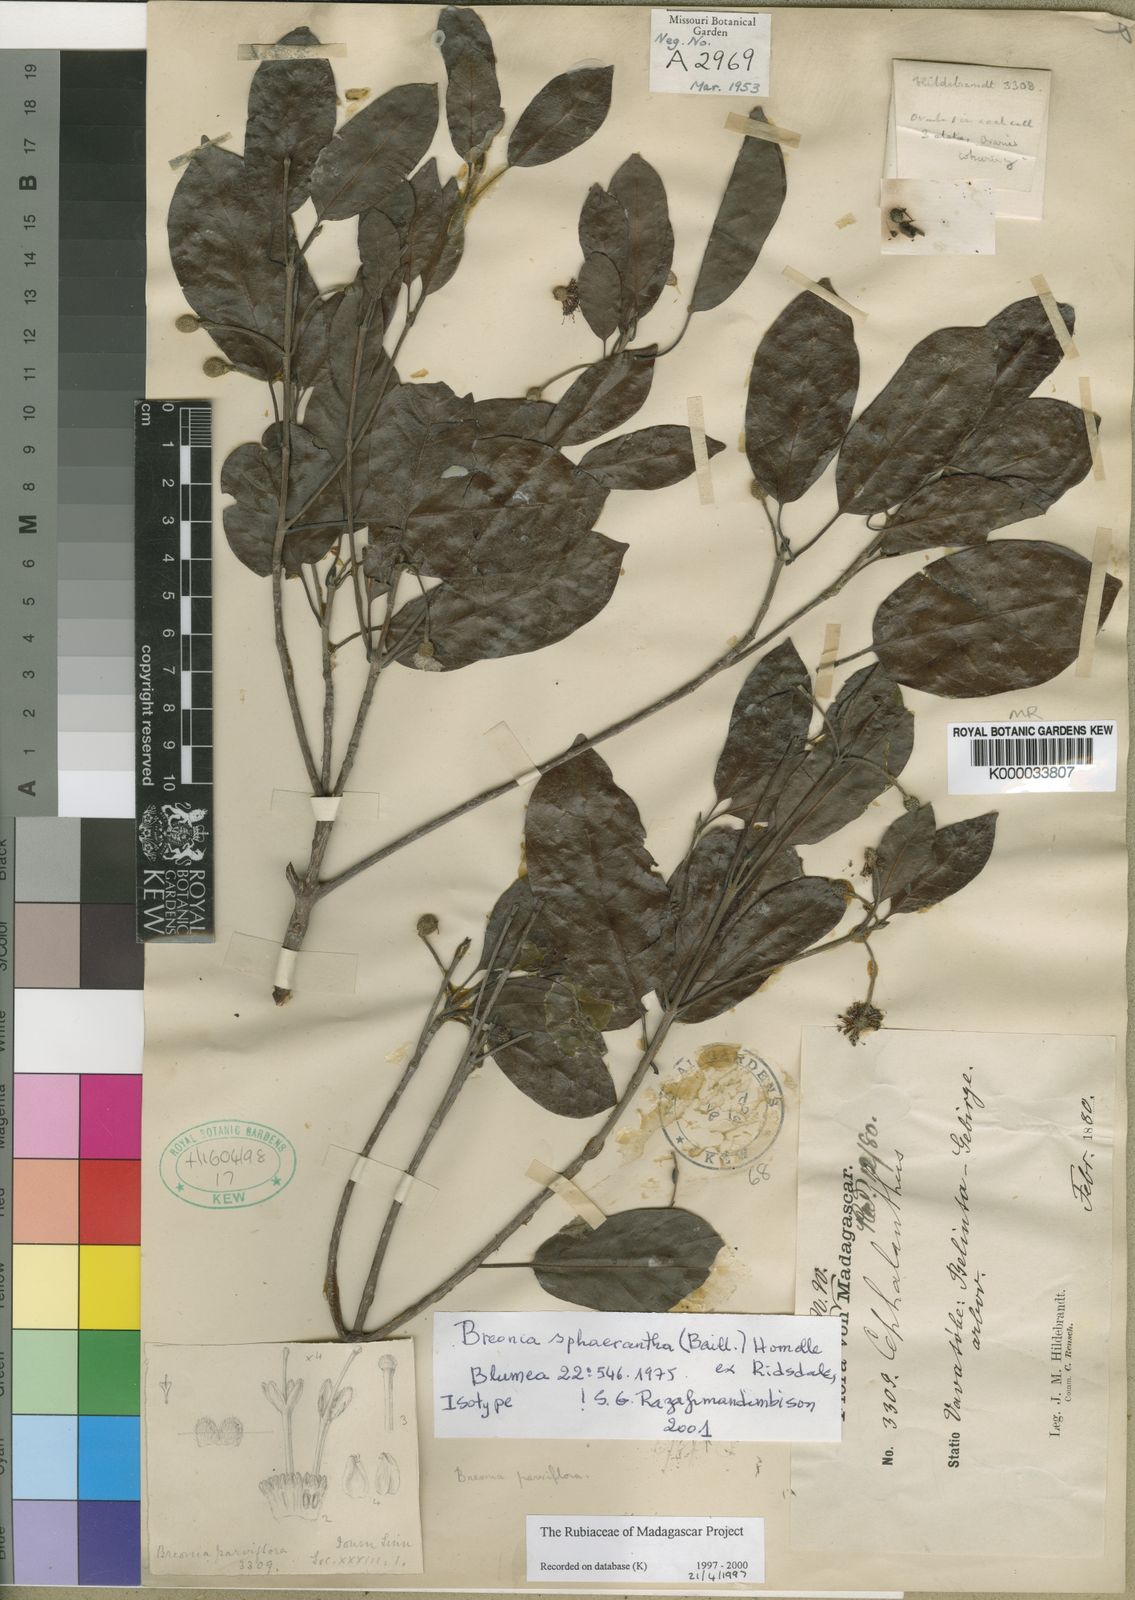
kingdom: Plantae
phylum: Tracheophyta
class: Magnoliopsida
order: Gentianales
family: Rubiaceae
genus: Breonia
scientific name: Breonia sphaerantha
